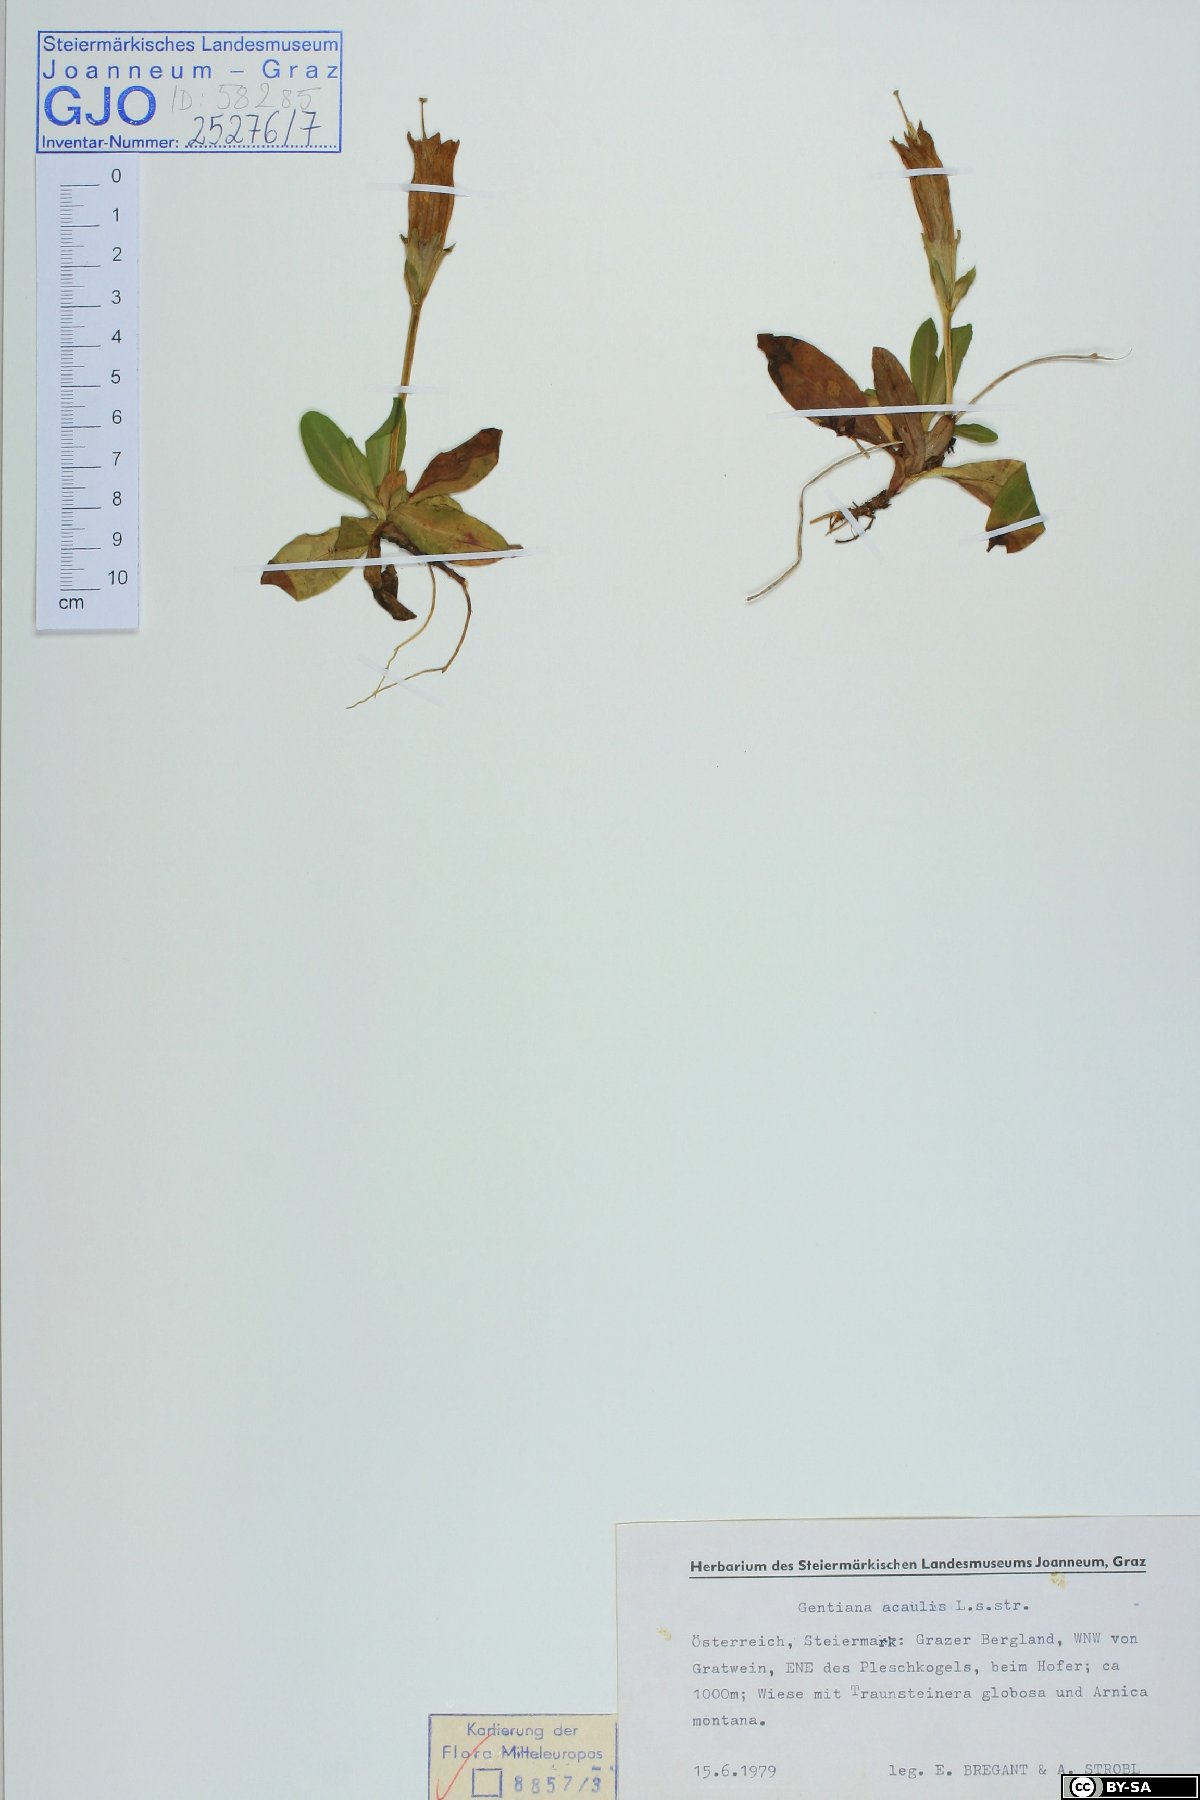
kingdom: Plantae
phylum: Tracheophyta
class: Magnoliopsida
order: Gentianales
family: Gentianaceae
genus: Gentiana
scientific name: Gentiana acaulis
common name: Trumpet gentian
